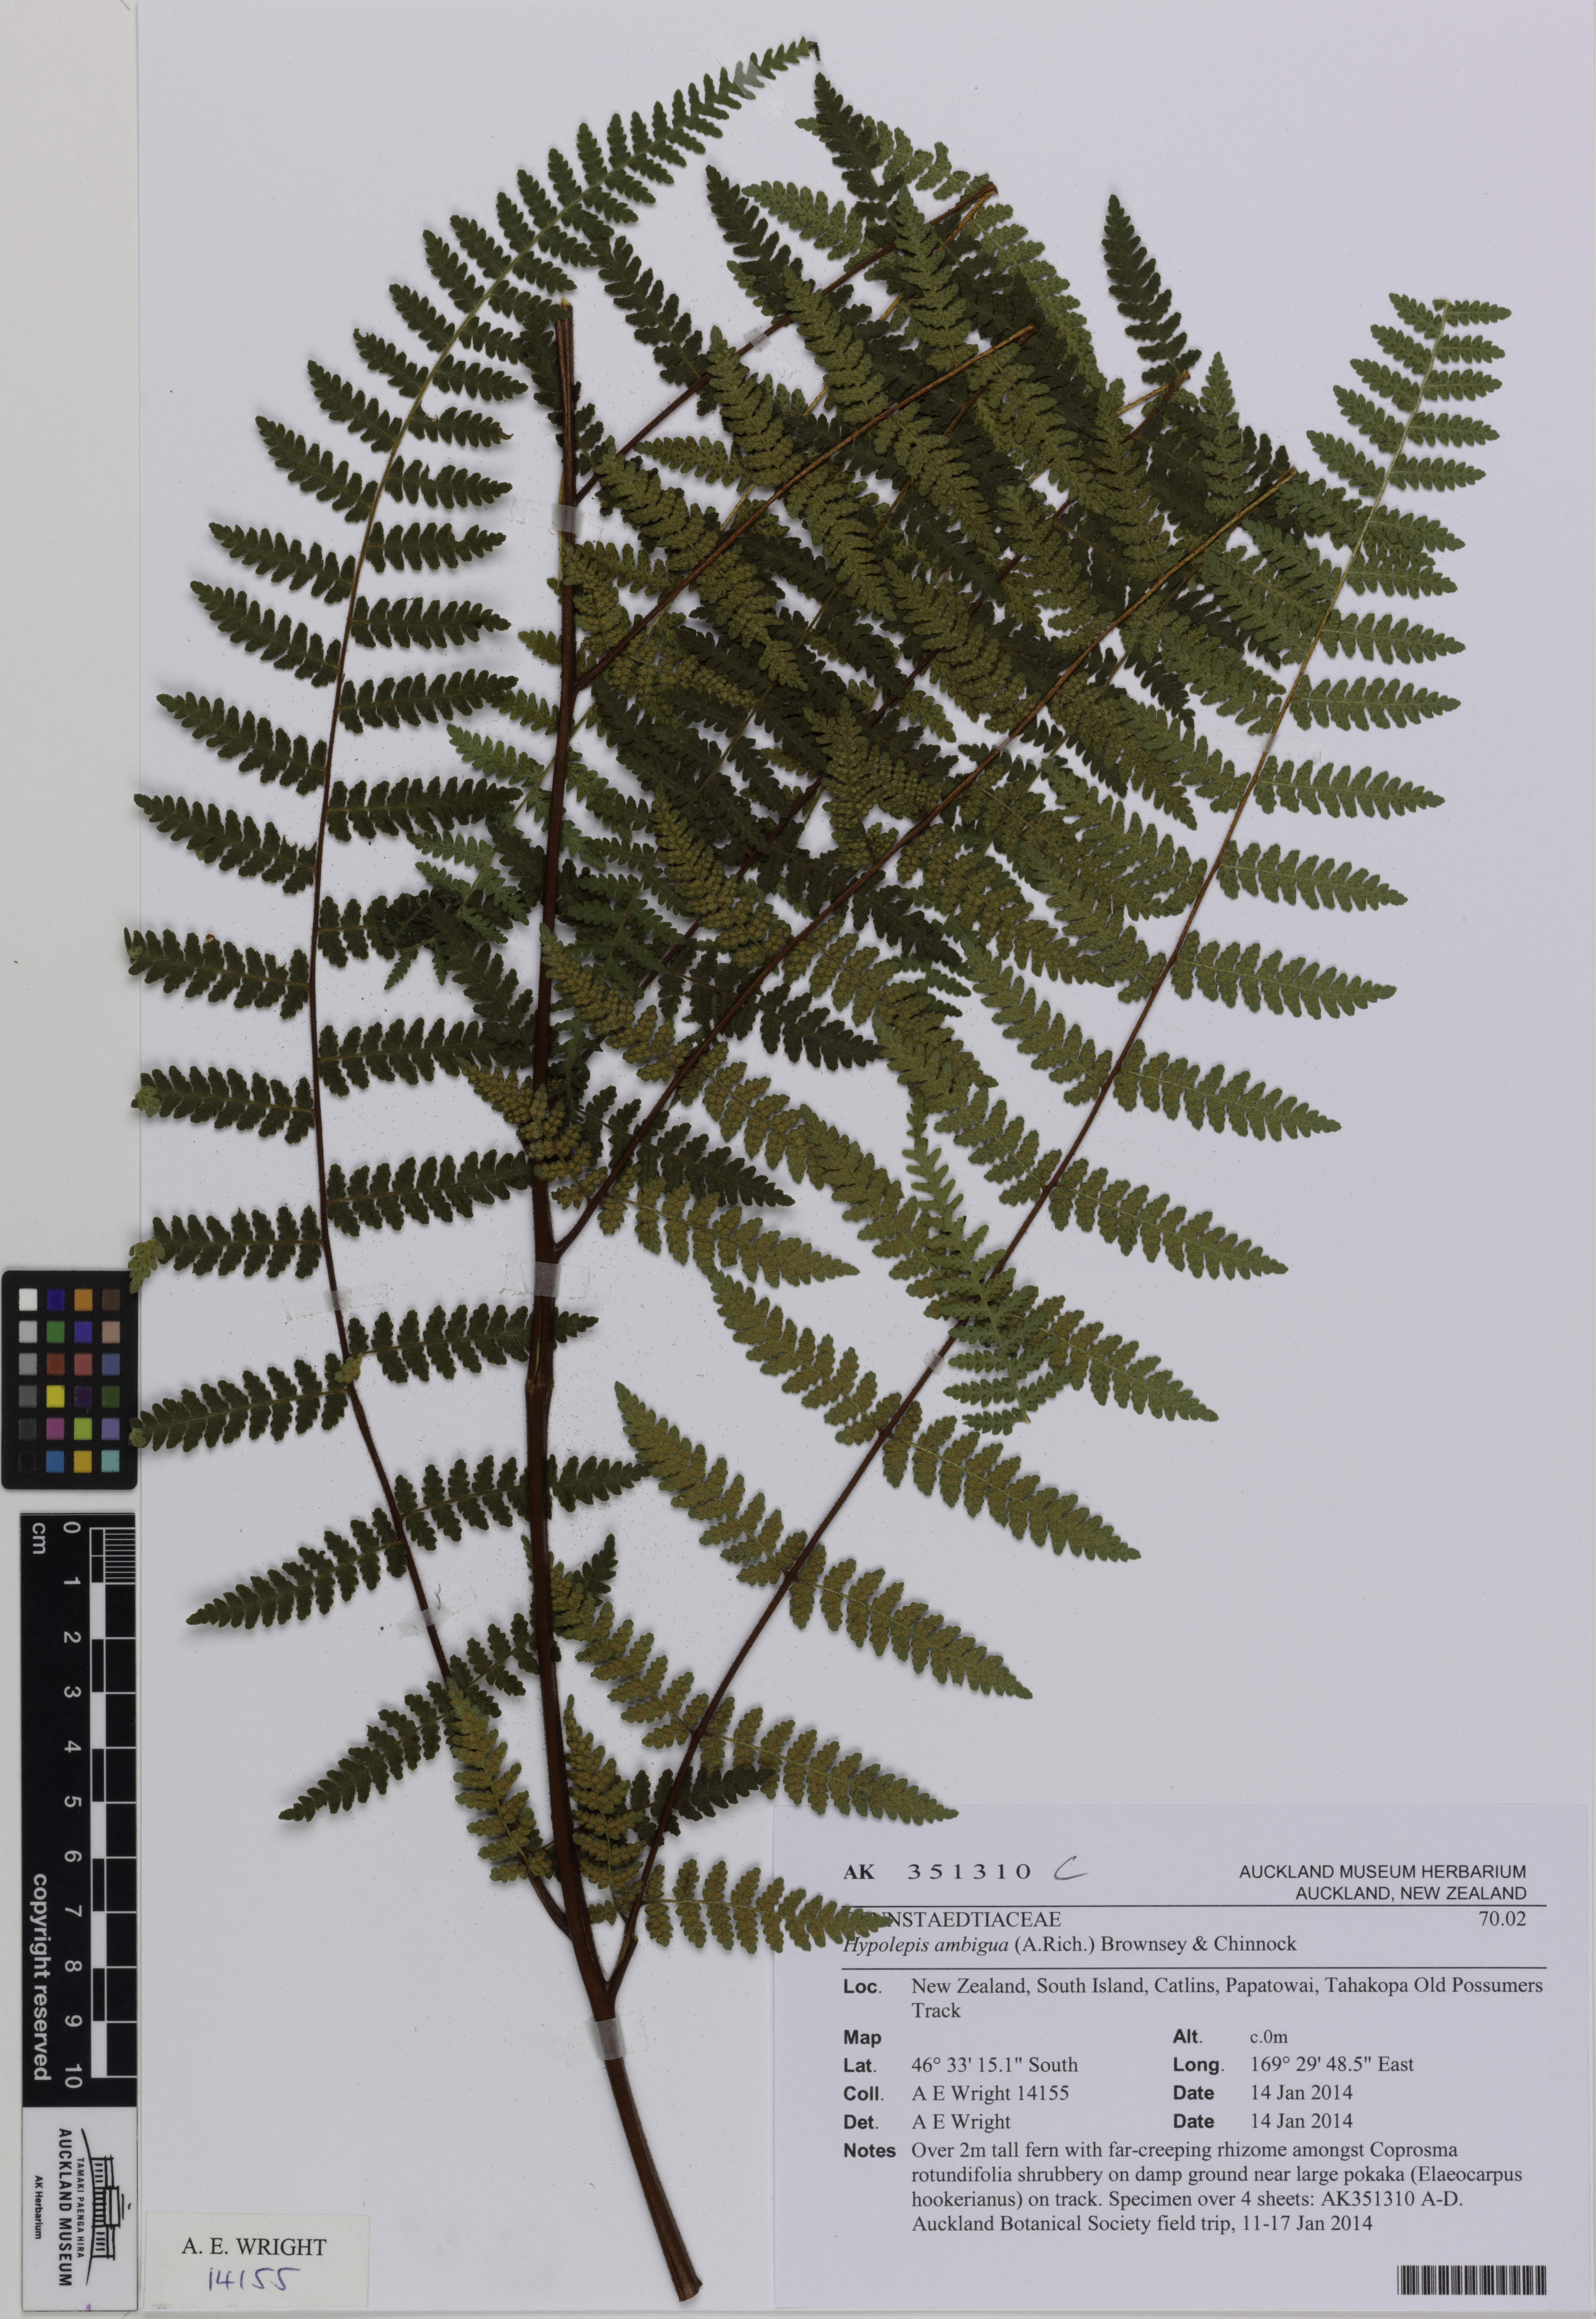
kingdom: Plantae
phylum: Tracheophyta
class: Polypodiopsida
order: Polypodiales
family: Dennstaedtiaceae
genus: Hypolepis
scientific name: Hypolepis
